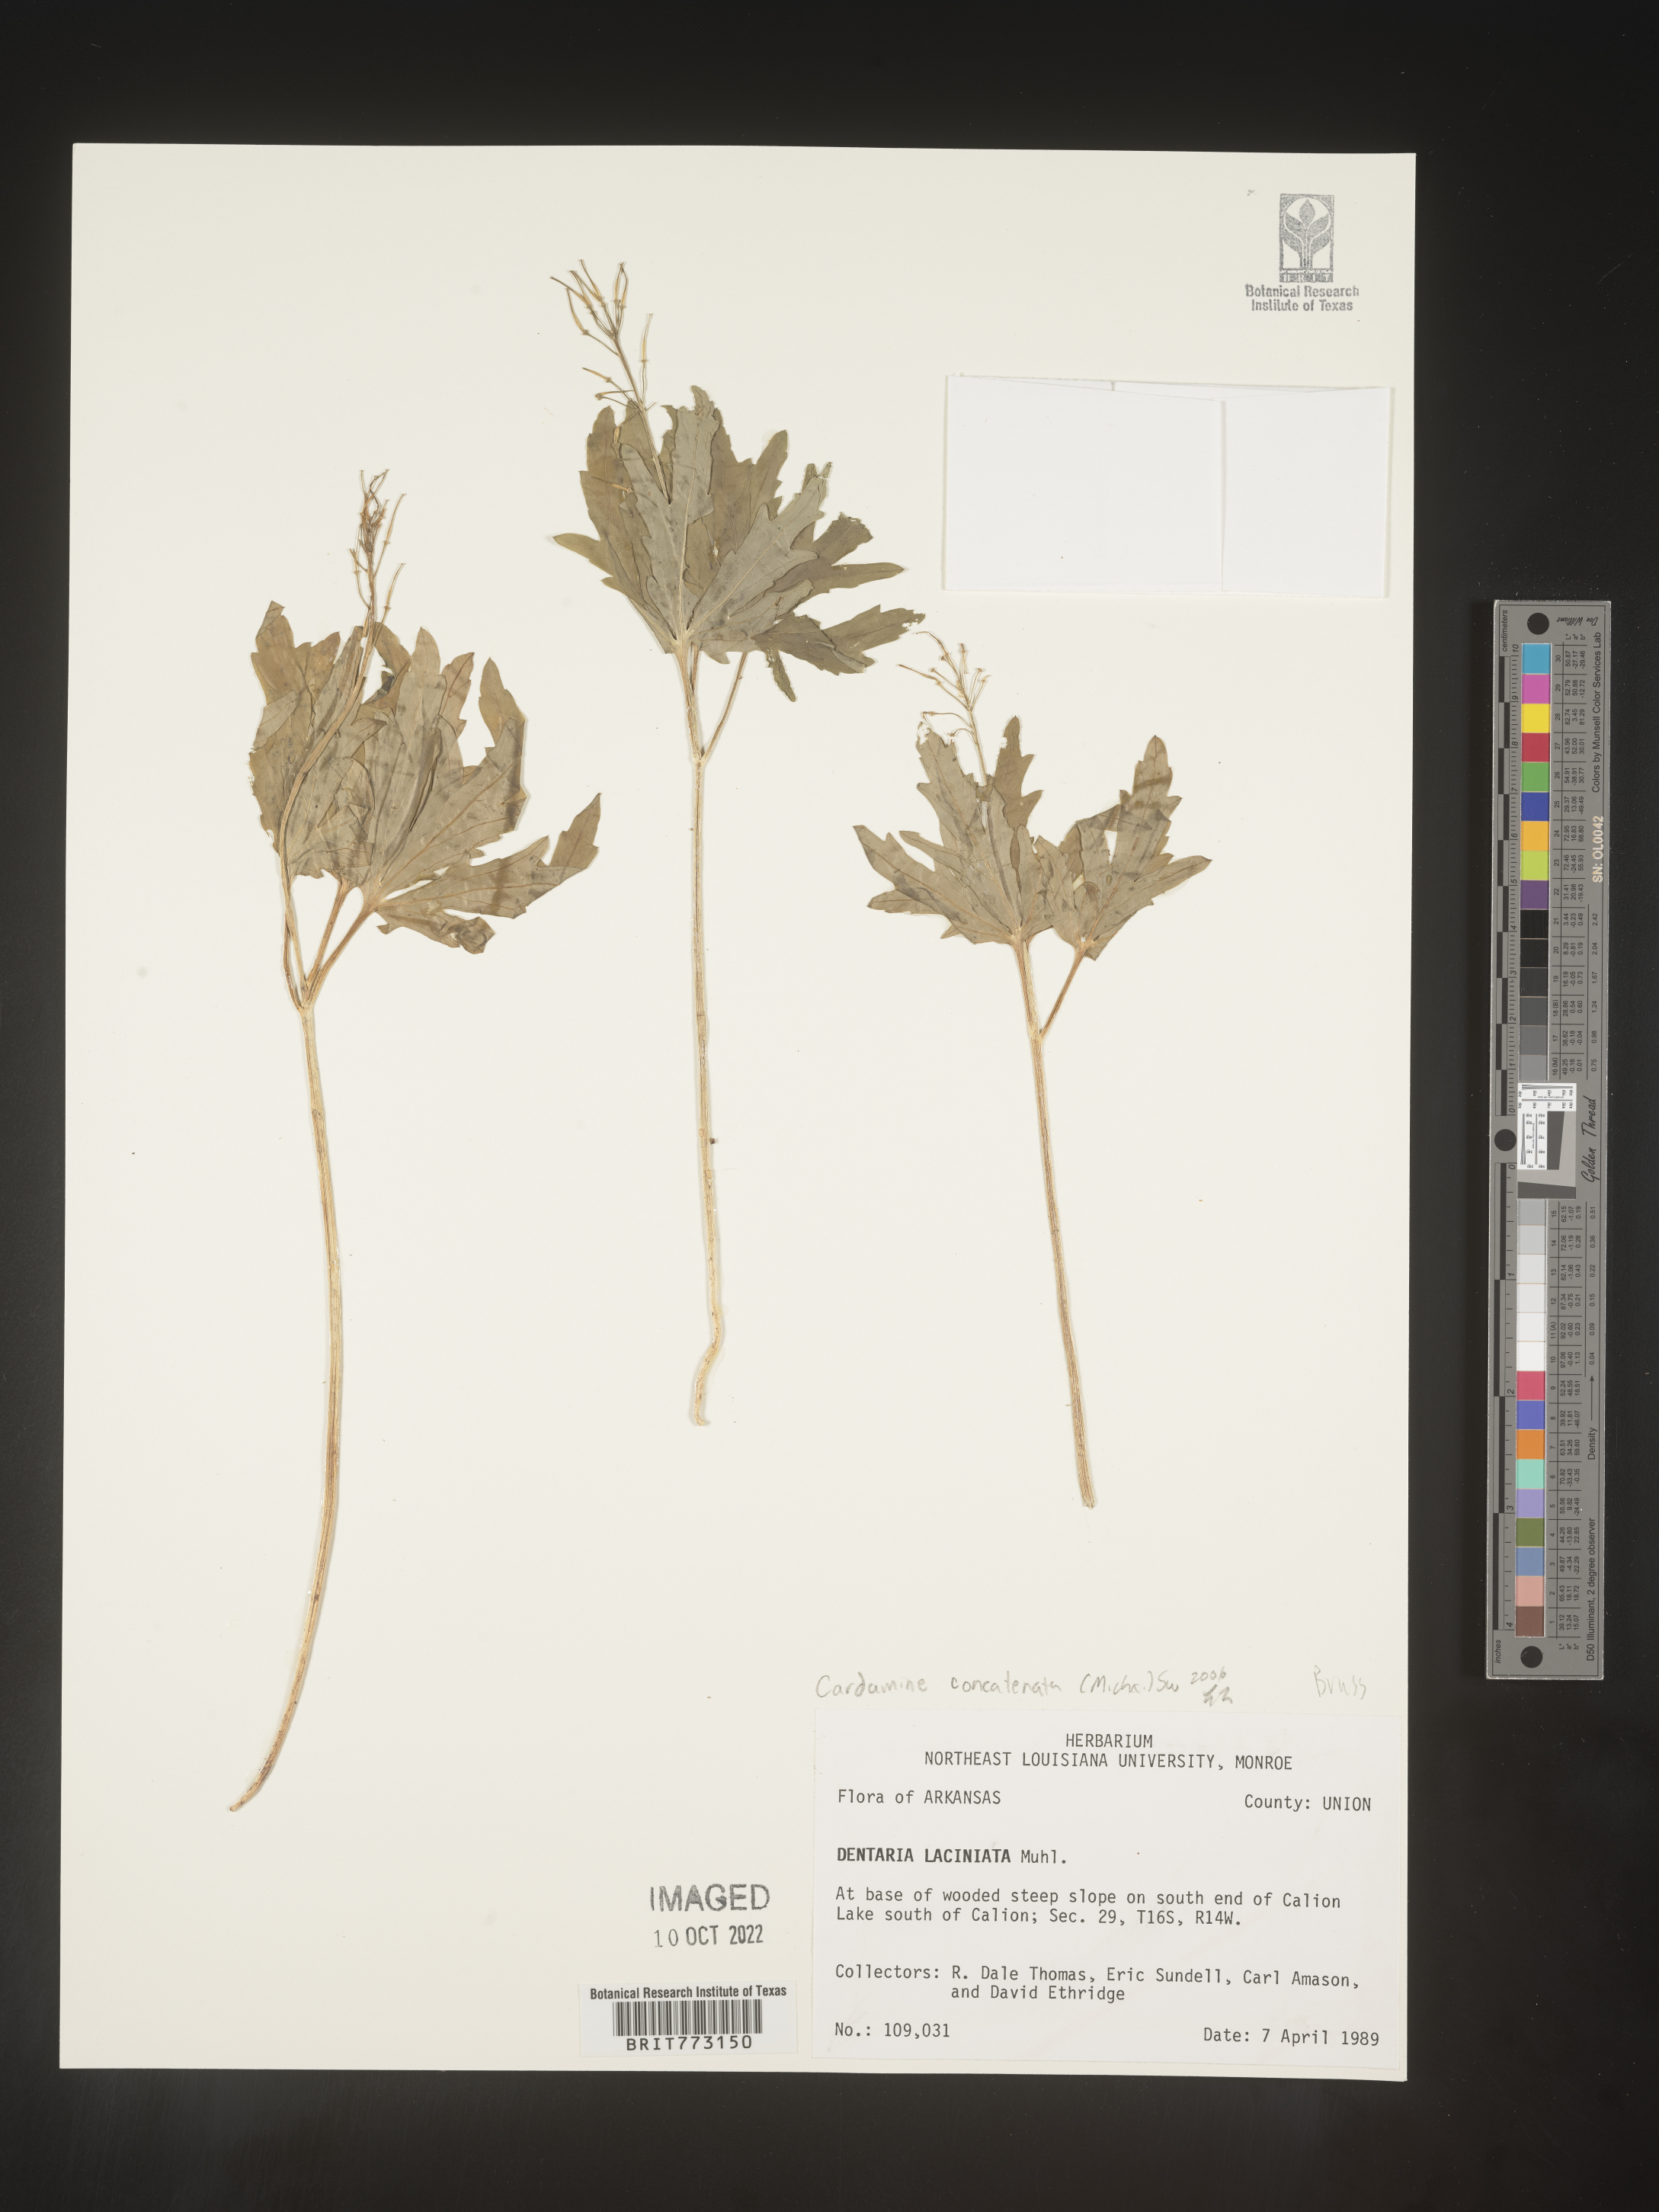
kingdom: Plantae
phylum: Tracheophyta
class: Magnoliopsida
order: Brassicales
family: Brassicaceae
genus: Cardamine
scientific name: Cardamine
